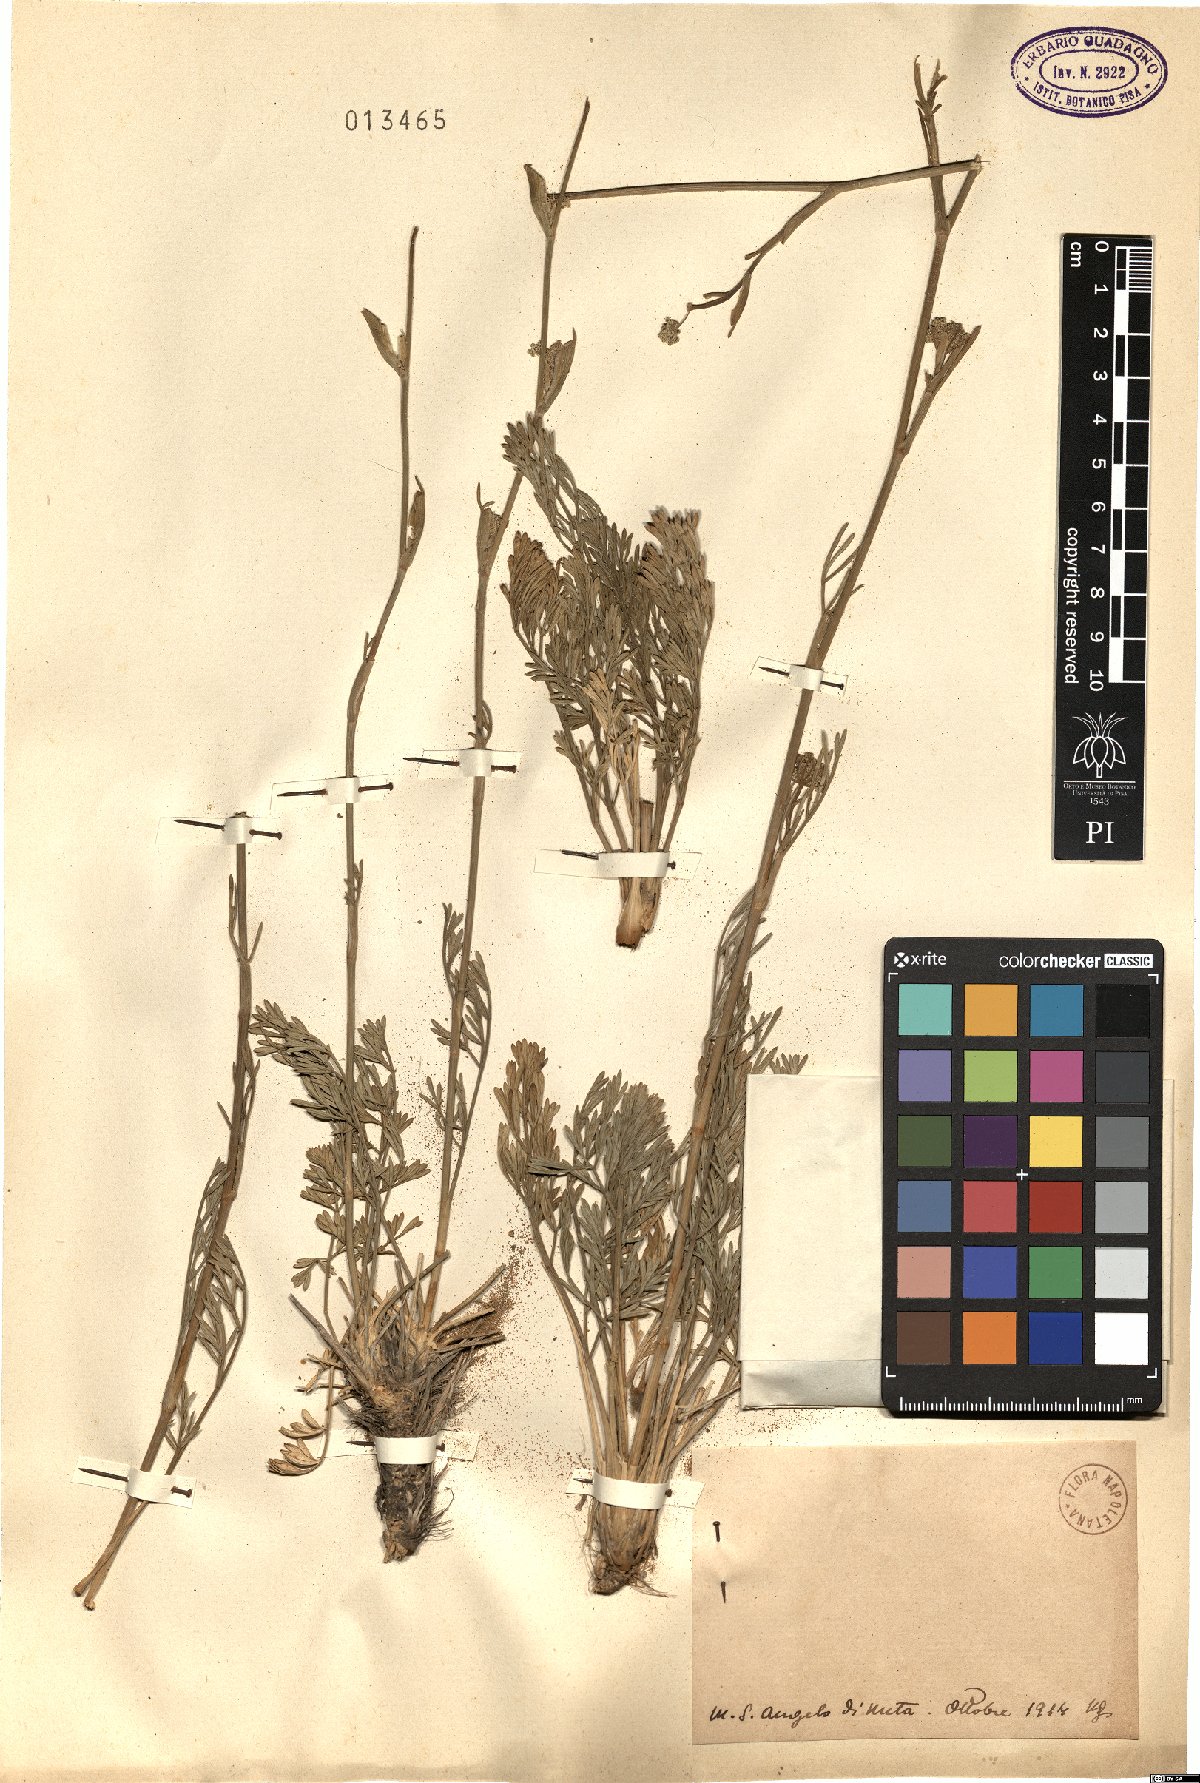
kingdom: Plantae
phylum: Tracheophyta
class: Magnoliopsida
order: Apiales
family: Apiaceae
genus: Seseli
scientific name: Seseli
